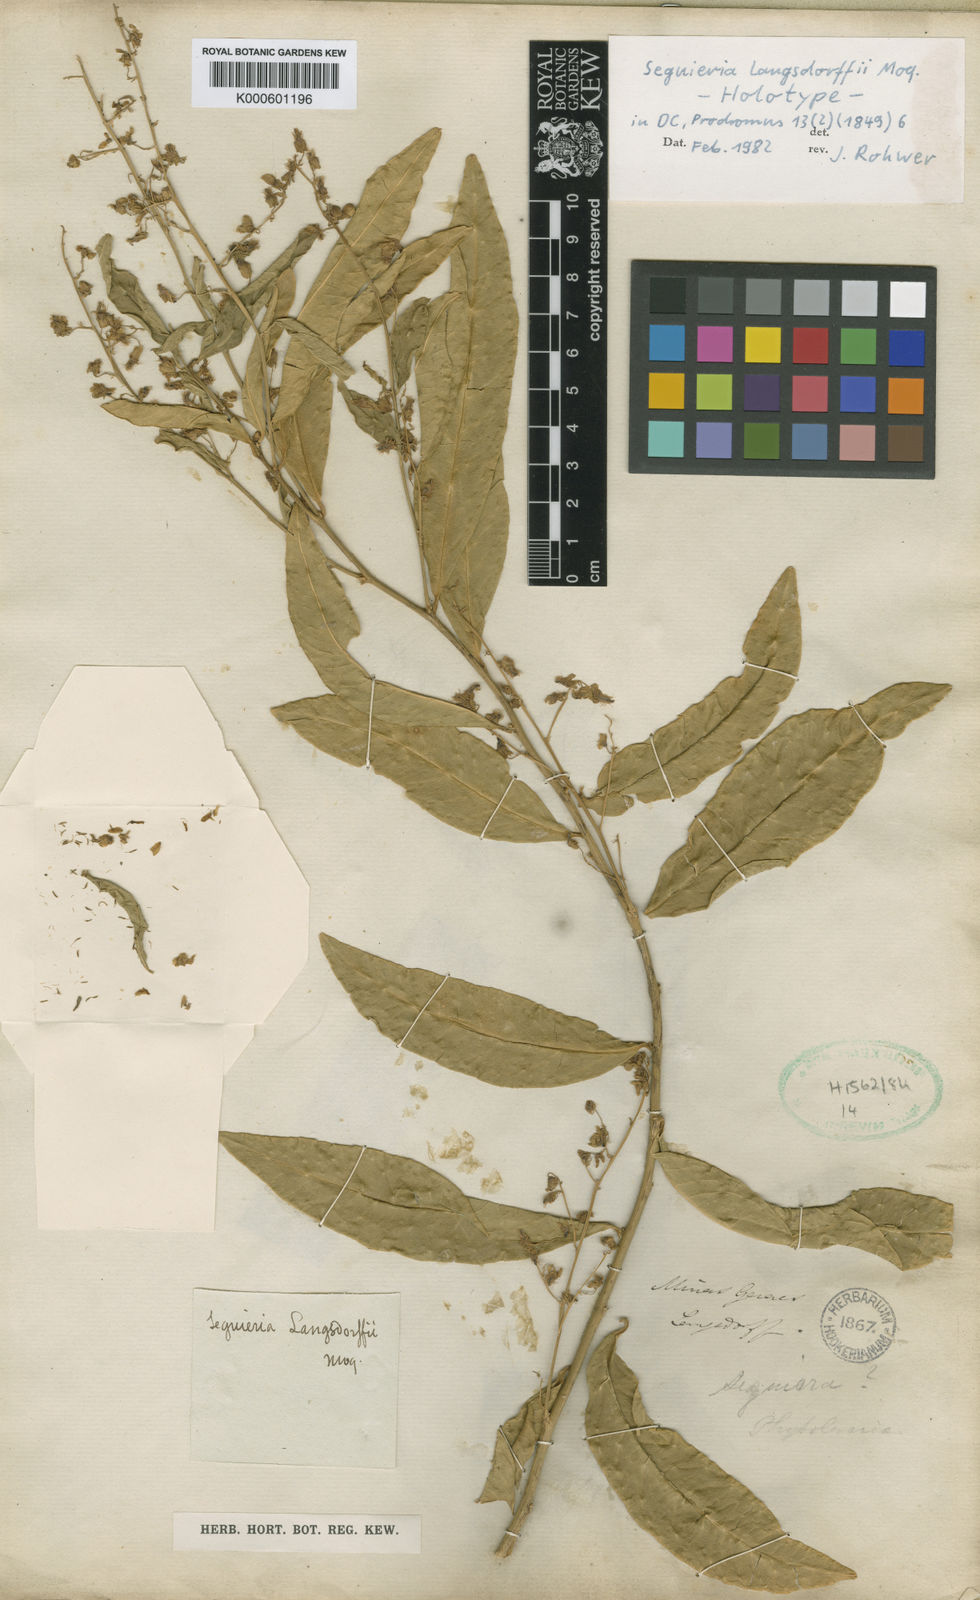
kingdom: Plantae
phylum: Tracheophyta
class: Magnoliopsida
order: Caryophyllales
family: Phytolaccaceae
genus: Seguieria
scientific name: Seguieria langsdorffii
